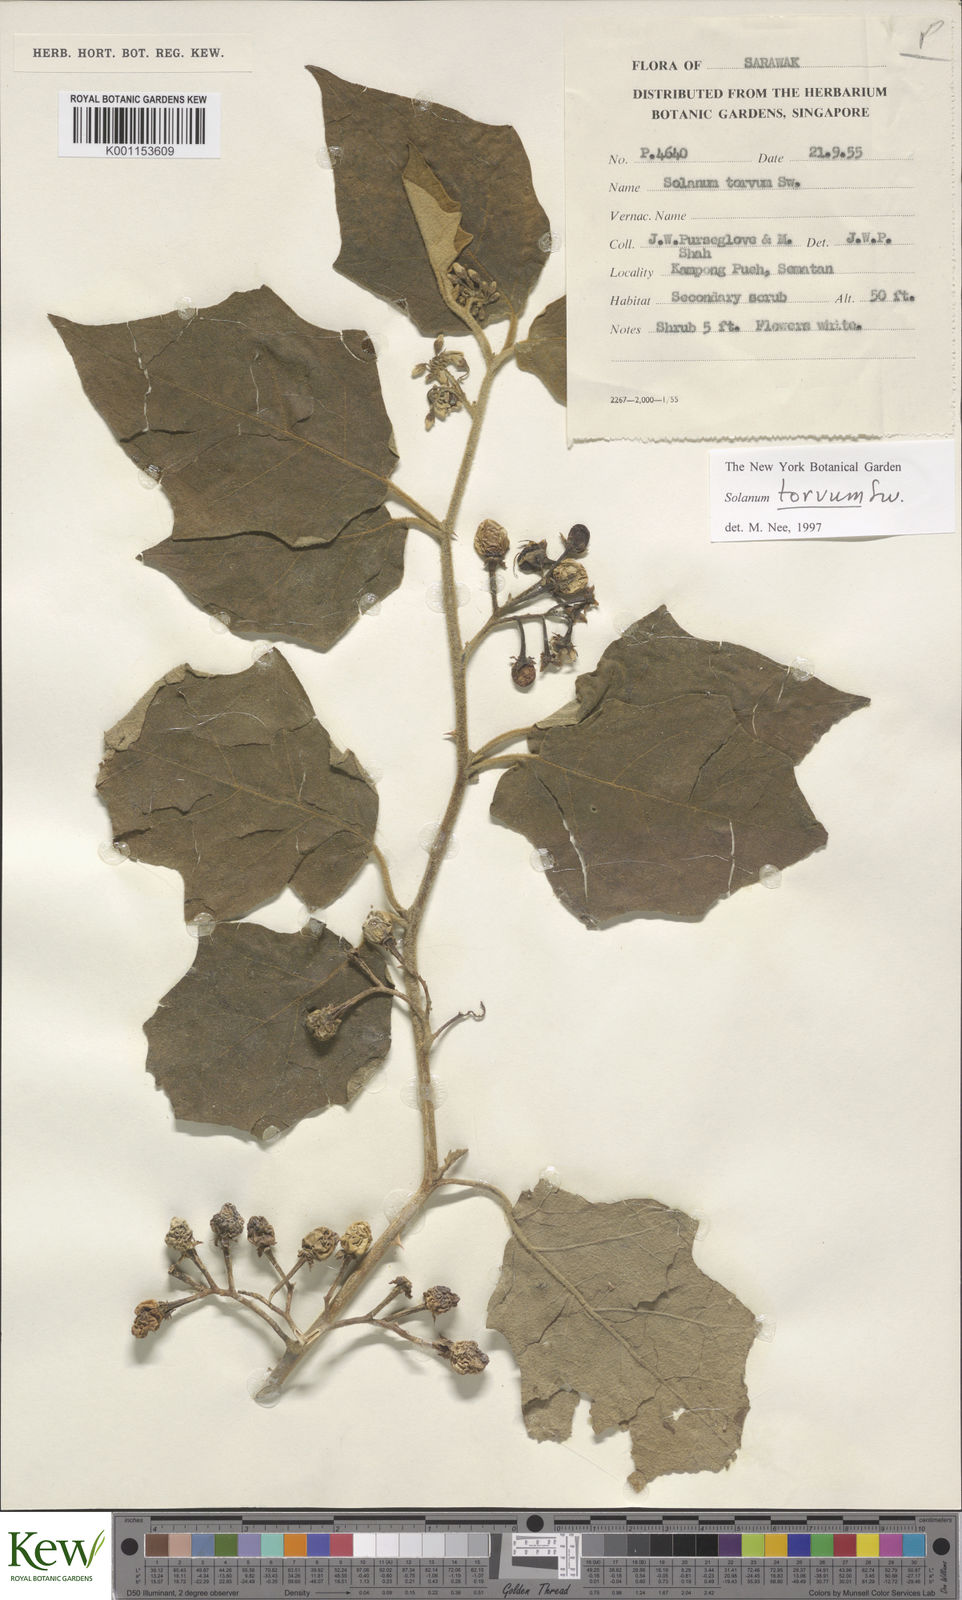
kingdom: Plantae
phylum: Tracheophyta
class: Magnoliopsida
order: Solanales
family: Solanaceae
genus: Solanum
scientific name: Solanum torvum
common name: Turkey berry
